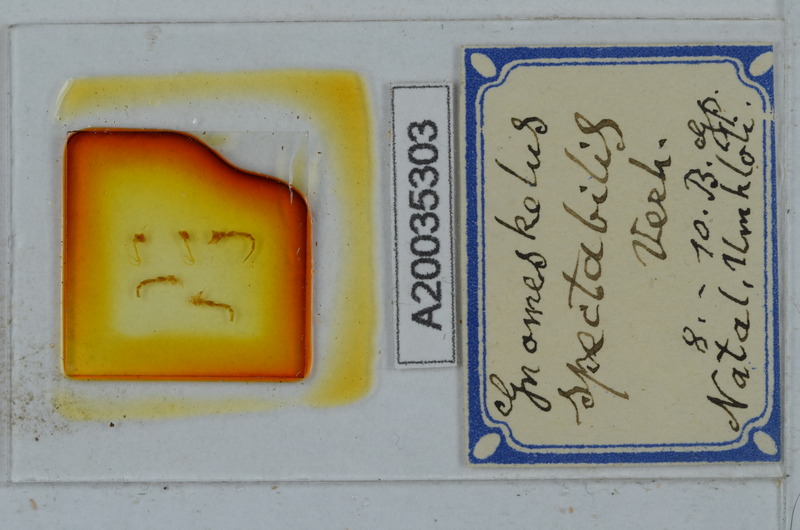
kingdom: Animalia
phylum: Arthropoda
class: Diplopoda
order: Polydesmida
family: Dalodesmidae
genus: Gnomeskelus
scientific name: Gnomeskelus spectabilis
